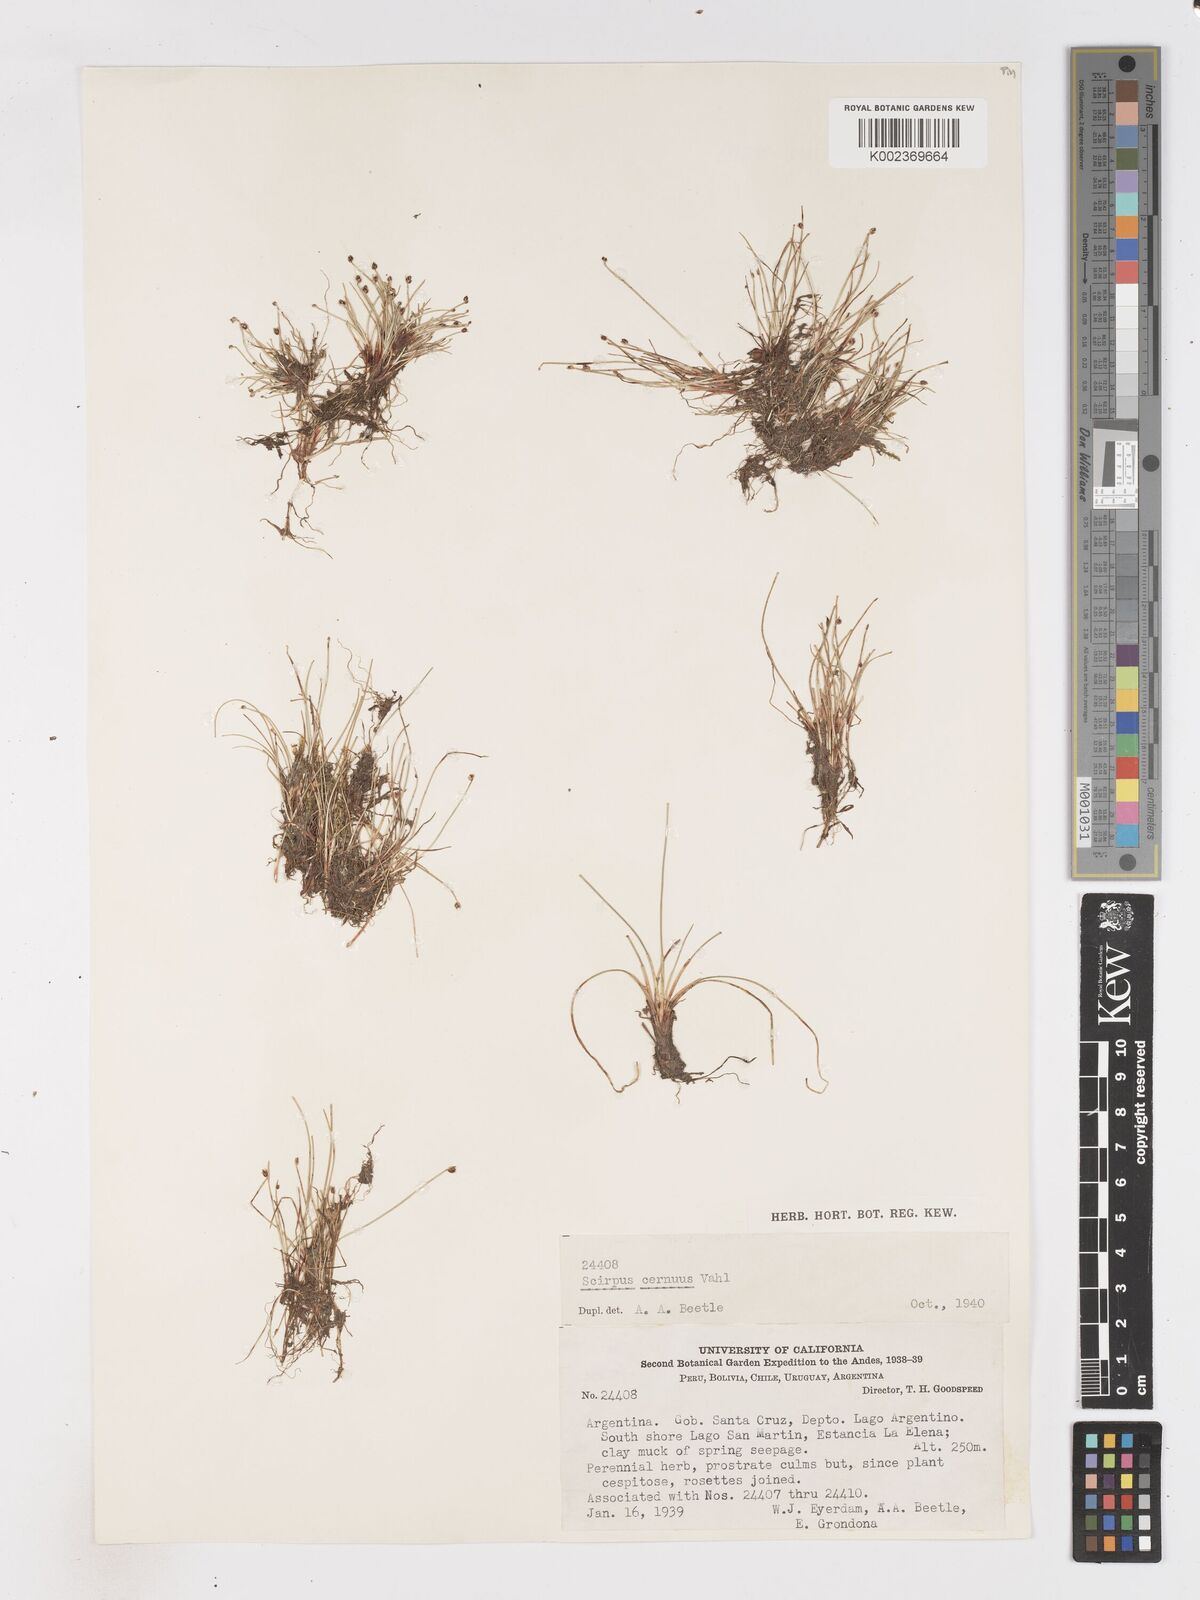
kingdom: Plantae
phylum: Tracheophyta
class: Liliopsida
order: Poales
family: Cyperaceae
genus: Isolepis
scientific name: Isolepis cernua
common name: Slender club-rush
